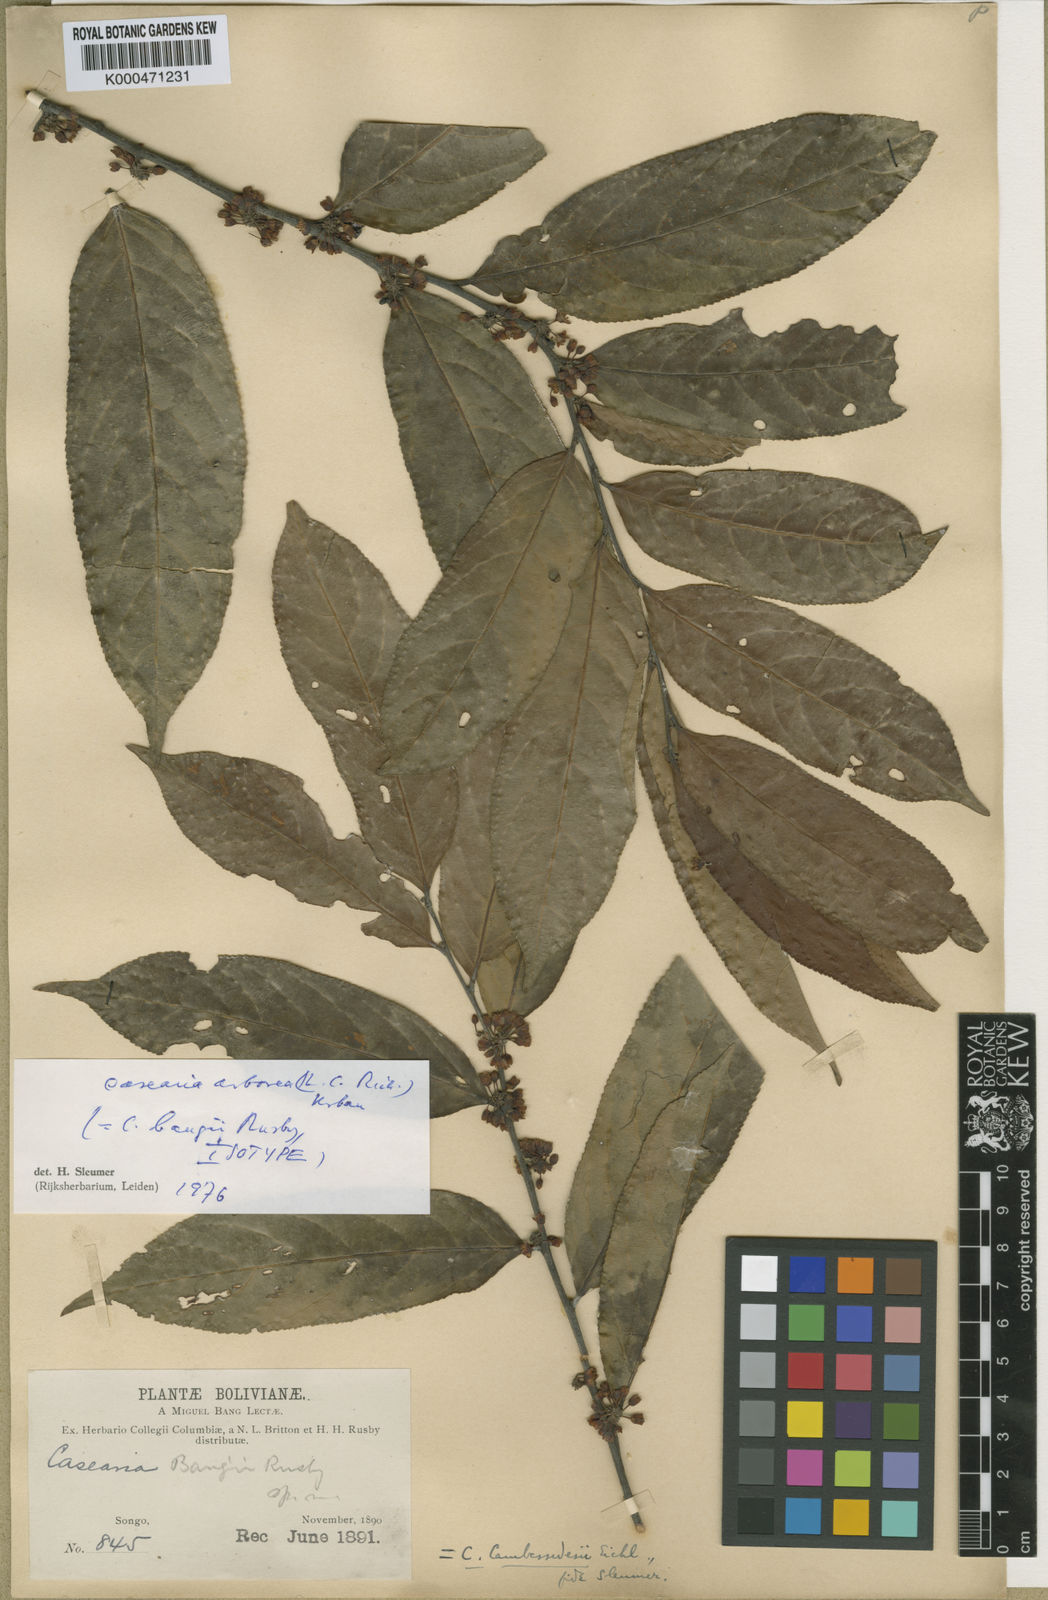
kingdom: Plantae
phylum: Tracheophyta
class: Magnoliopsida
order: Malpighiales
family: Salicaceae
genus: Casearia
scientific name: Casearia arborea
